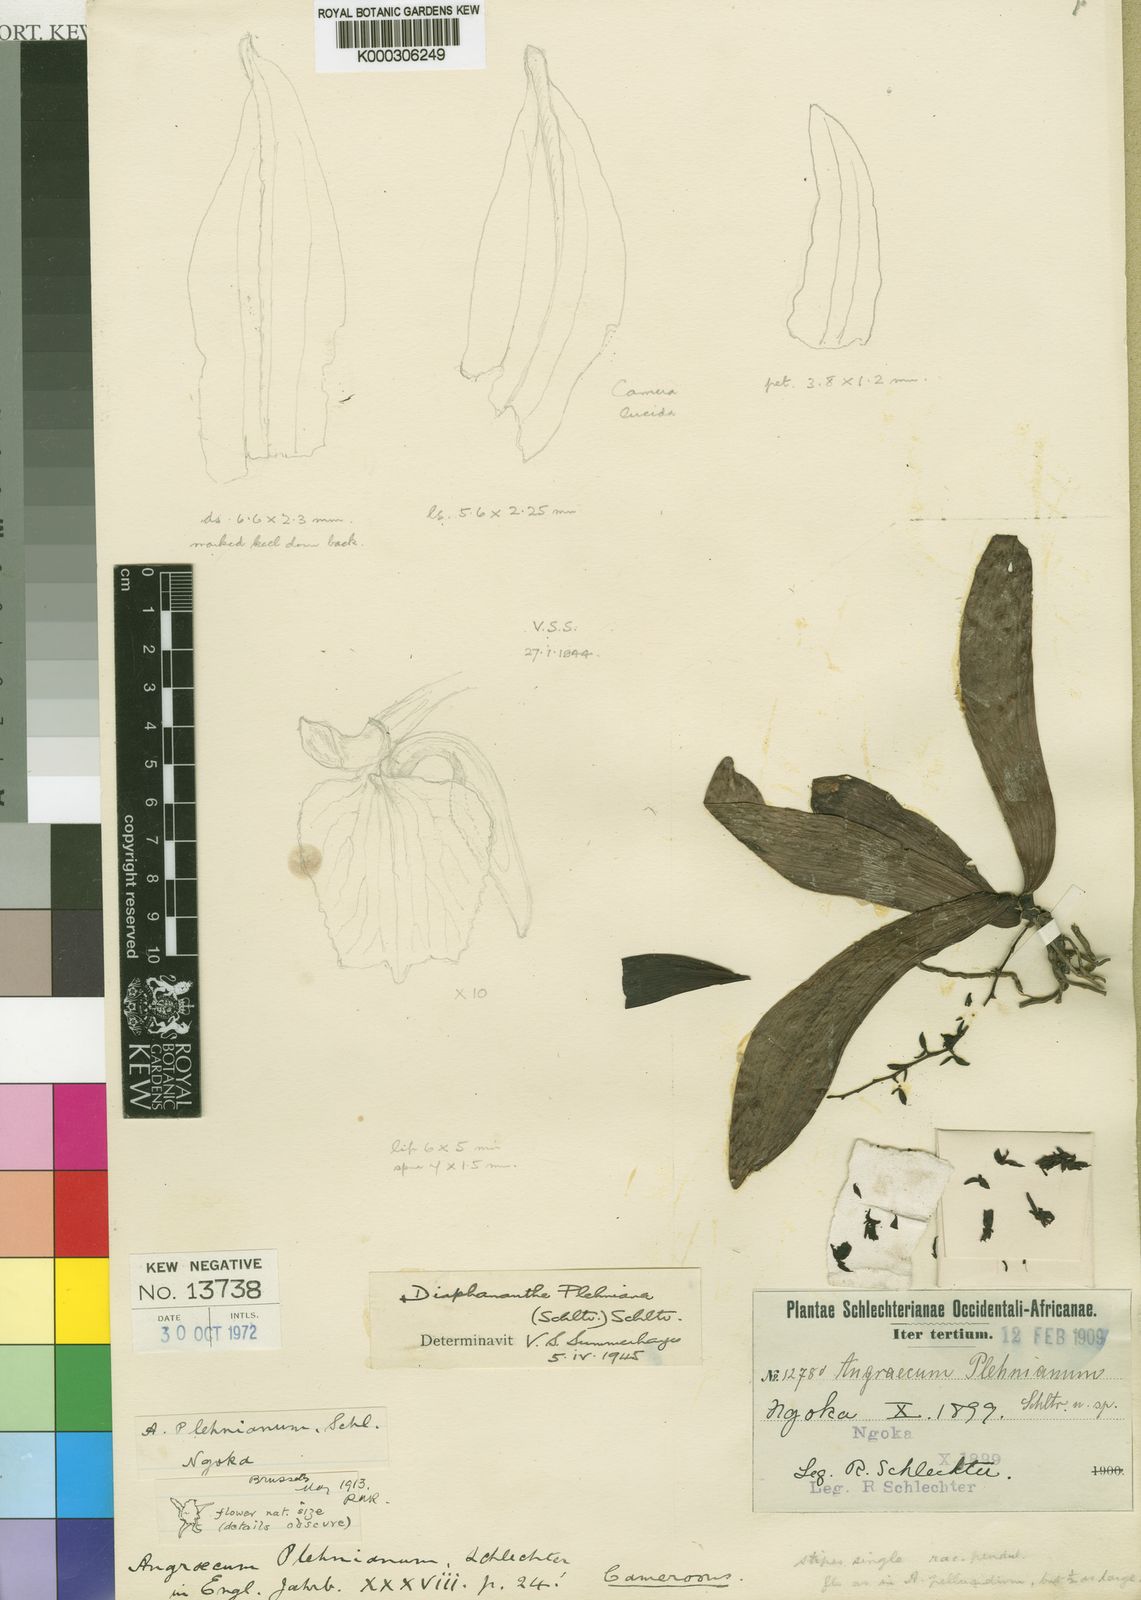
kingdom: Plantae
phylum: Tracheophyta
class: Liliopsida
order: Asparagales
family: Orchidaceae
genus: Diaphananthe
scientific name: Diaphananthe plehniana
